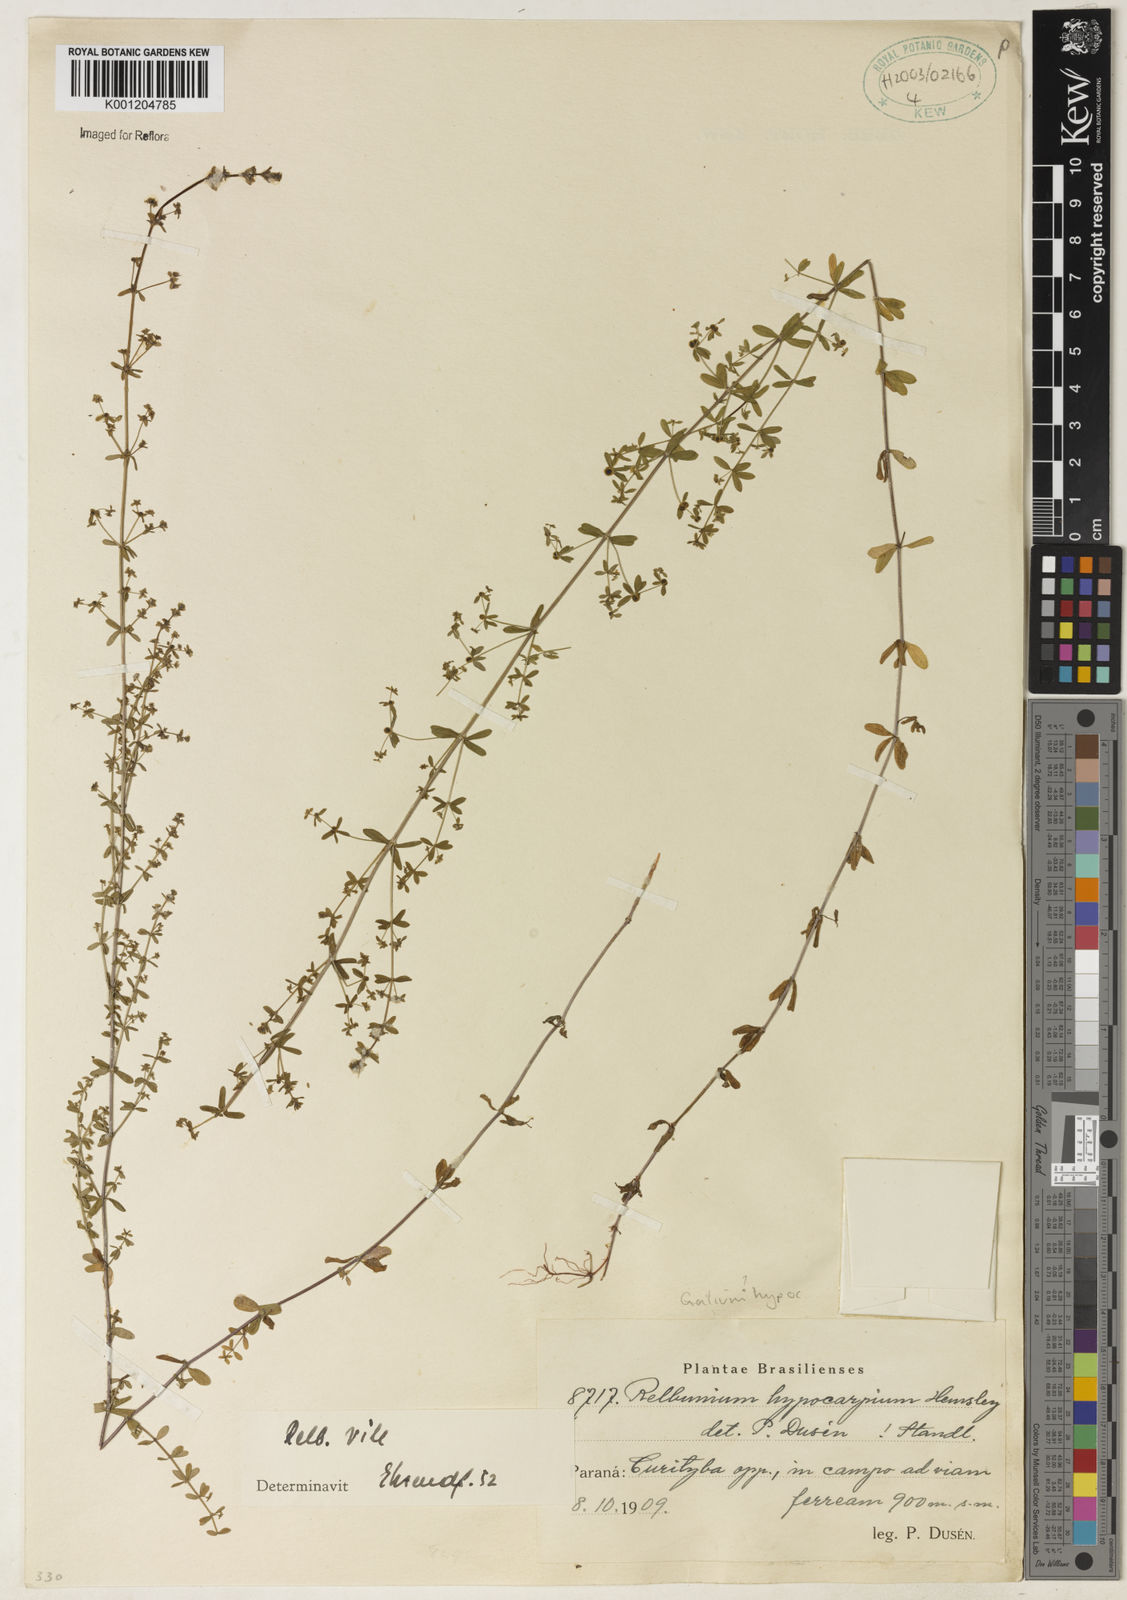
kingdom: Plantae
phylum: Tracheophyta
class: Magnoliopsida
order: Gentianales
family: Rubiaceae
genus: Galium
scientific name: Galium hypocarpium
